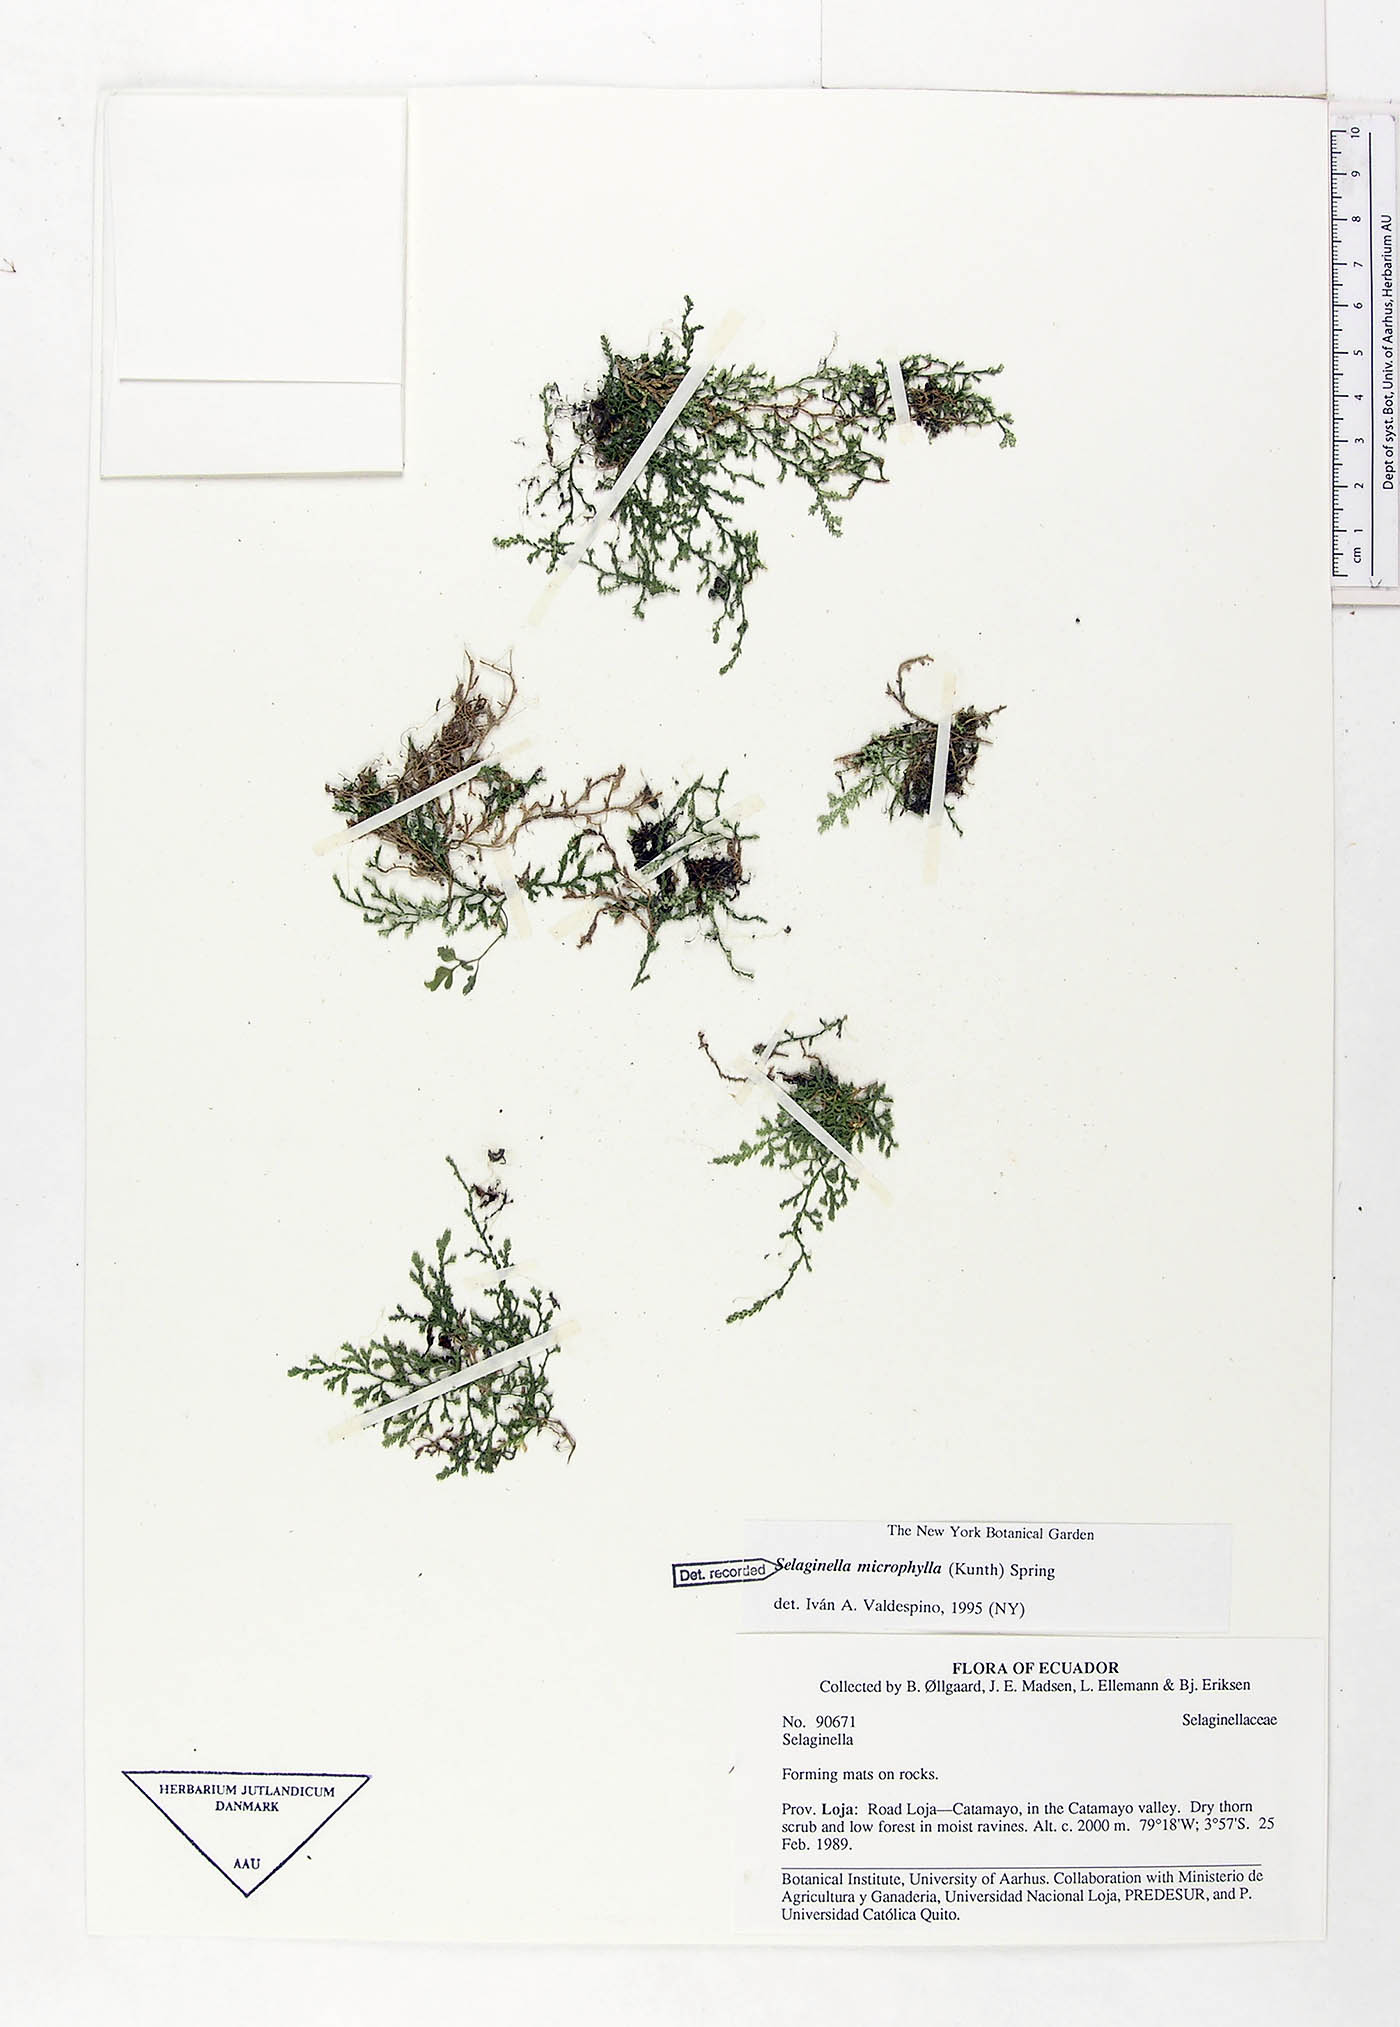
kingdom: Plantae
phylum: Tracheophyta
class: Lycopodiopsida
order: Selaginellales
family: Selaginellaceae
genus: Selaginella
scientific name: Selaginella microphylla
